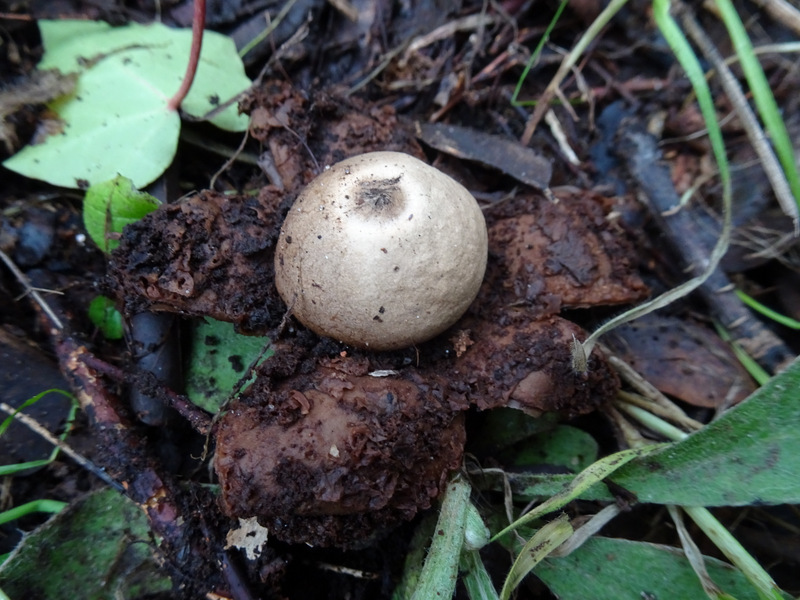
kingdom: Fungi
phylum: Basidiomycota
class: Agaricomycetes
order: Geastrales
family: Geastraceae
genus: Geastrum
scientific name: Geastrum michelianum
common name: kødet stjernebold
